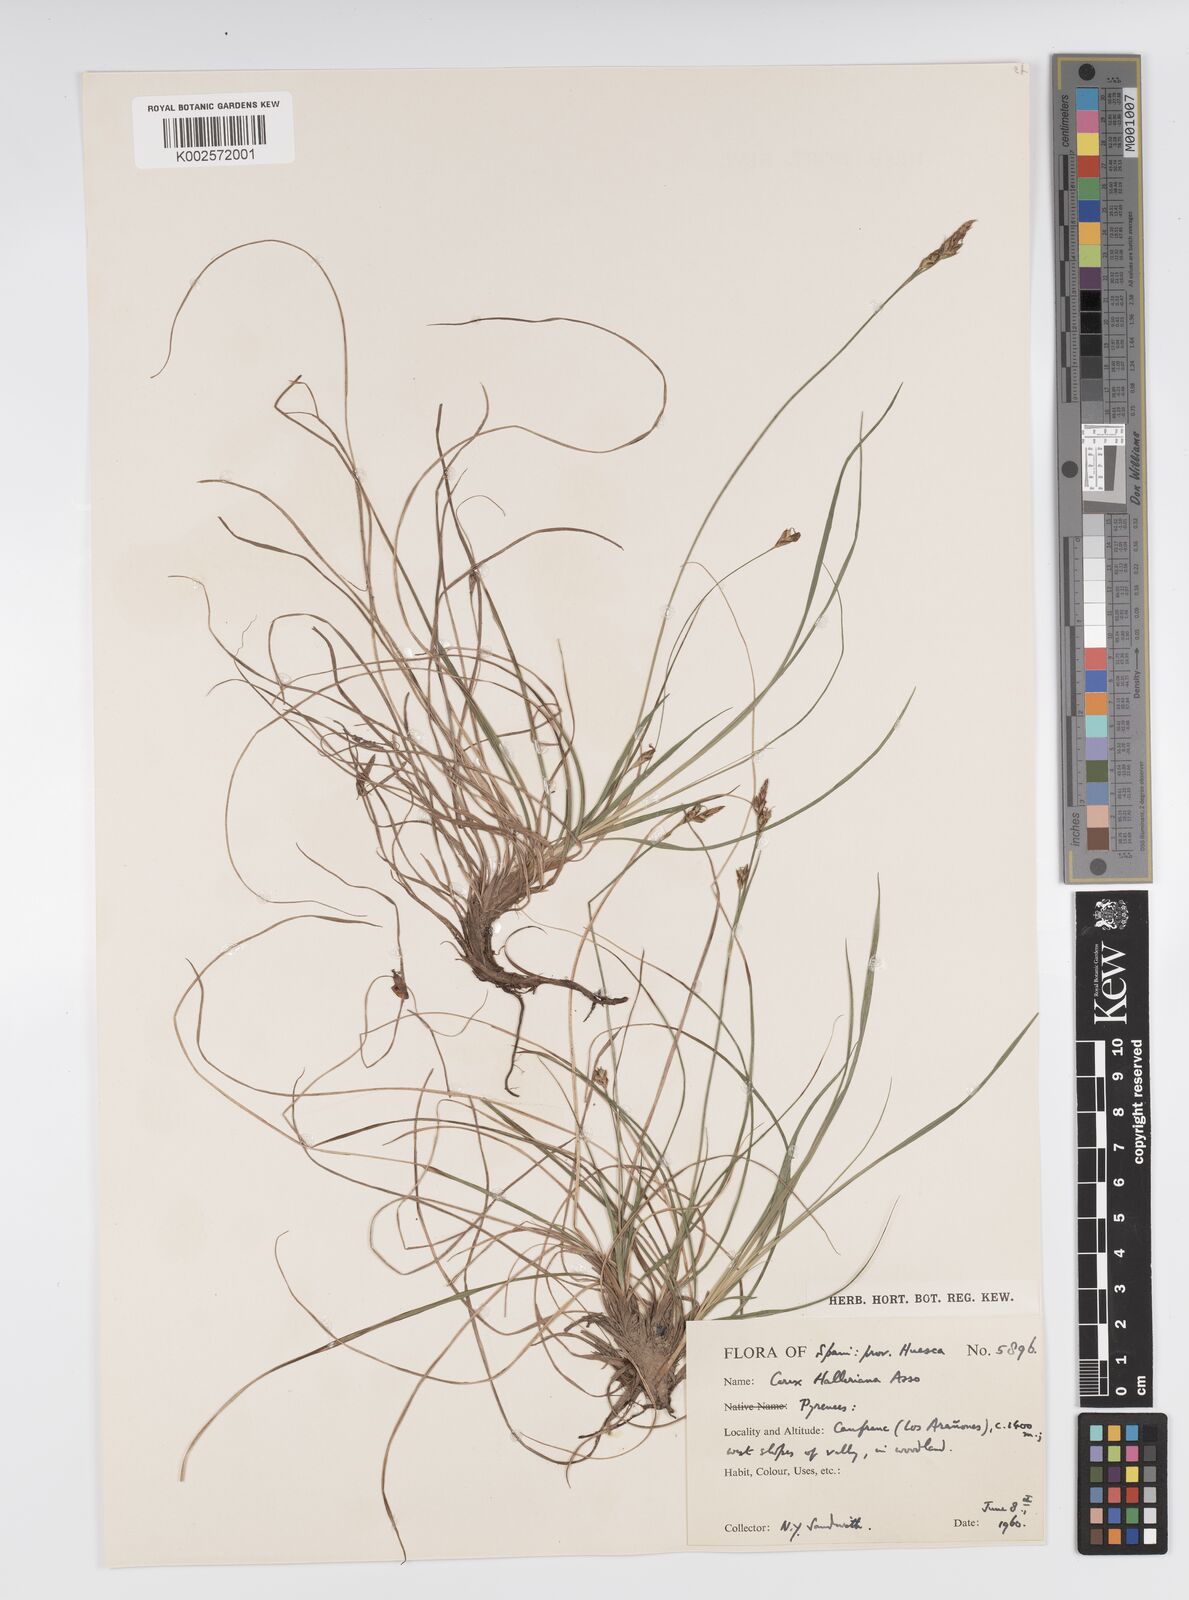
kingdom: Plantae
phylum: Tracheophyta
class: Liliopsida
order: Poales
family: Cyperaceae
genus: Carex
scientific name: Carex halleriana
